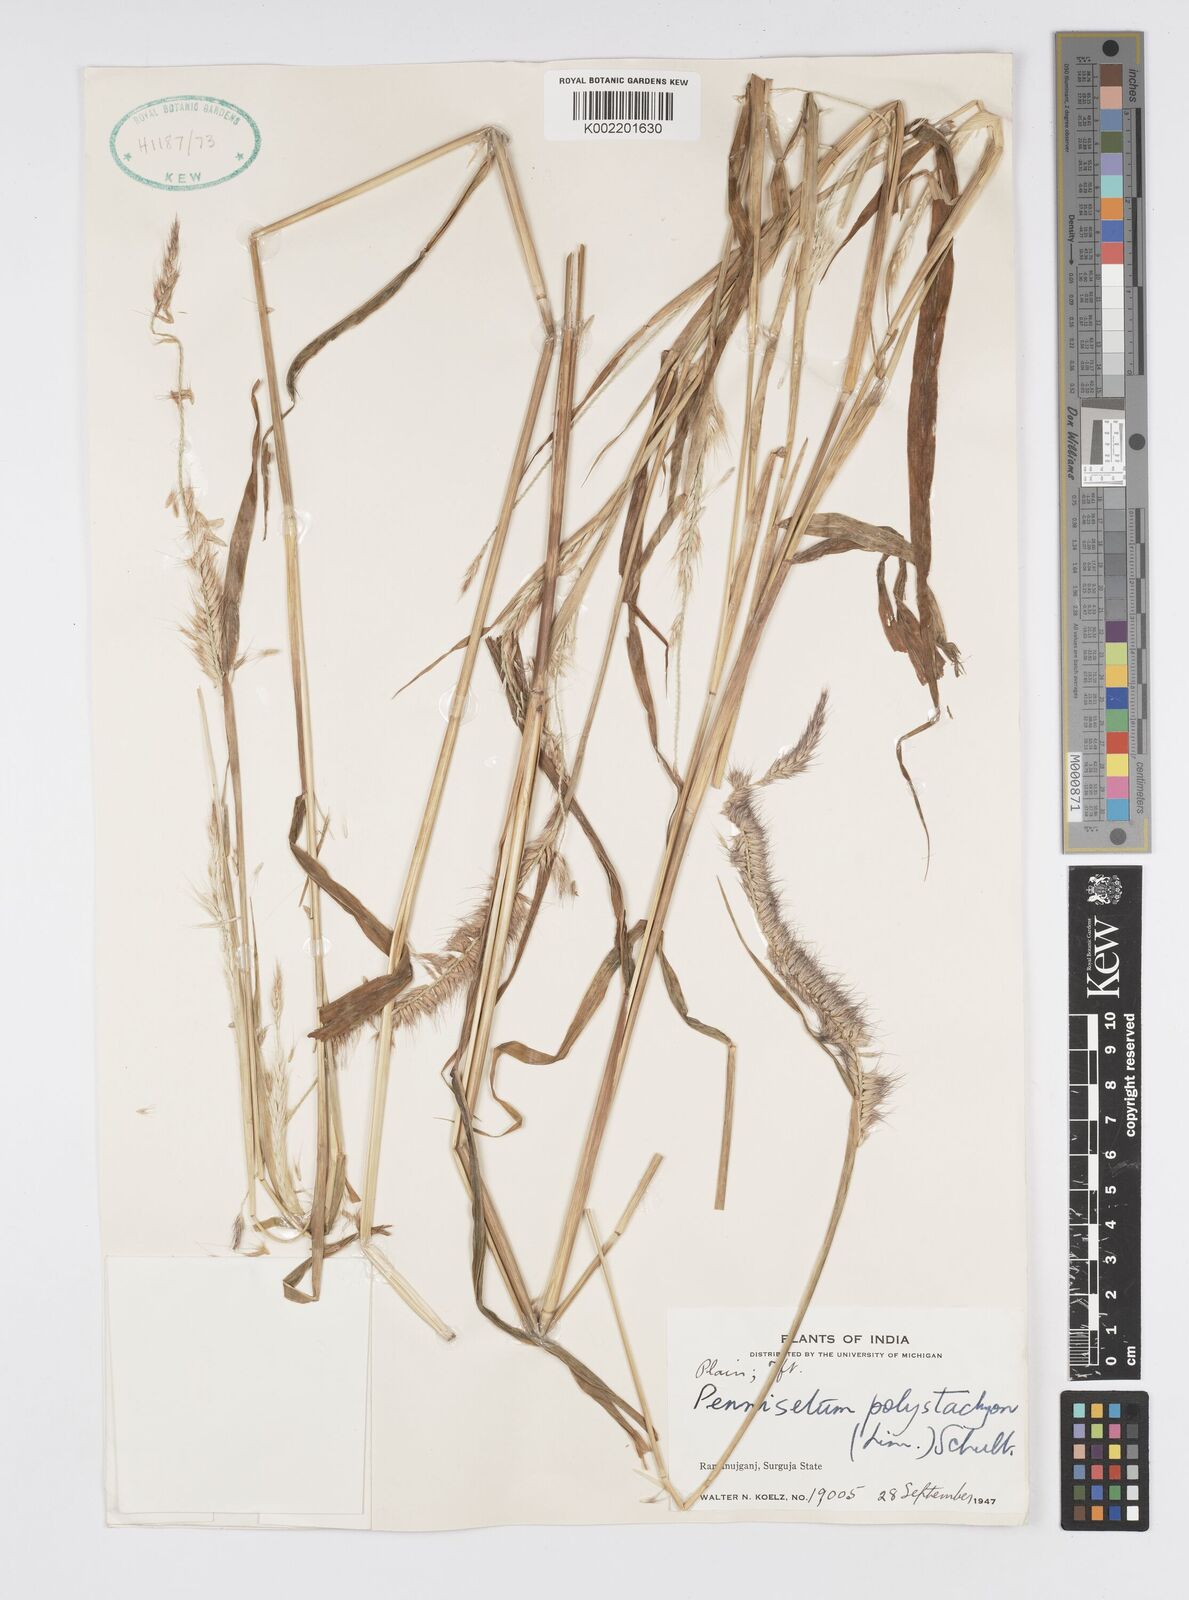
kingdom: Plantae
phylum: Tracheophyta
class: Liliopsida
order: Poales
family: Poaceae
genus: Setaria
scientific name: Setaria parviflora
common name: Knotroot bristle-grass
